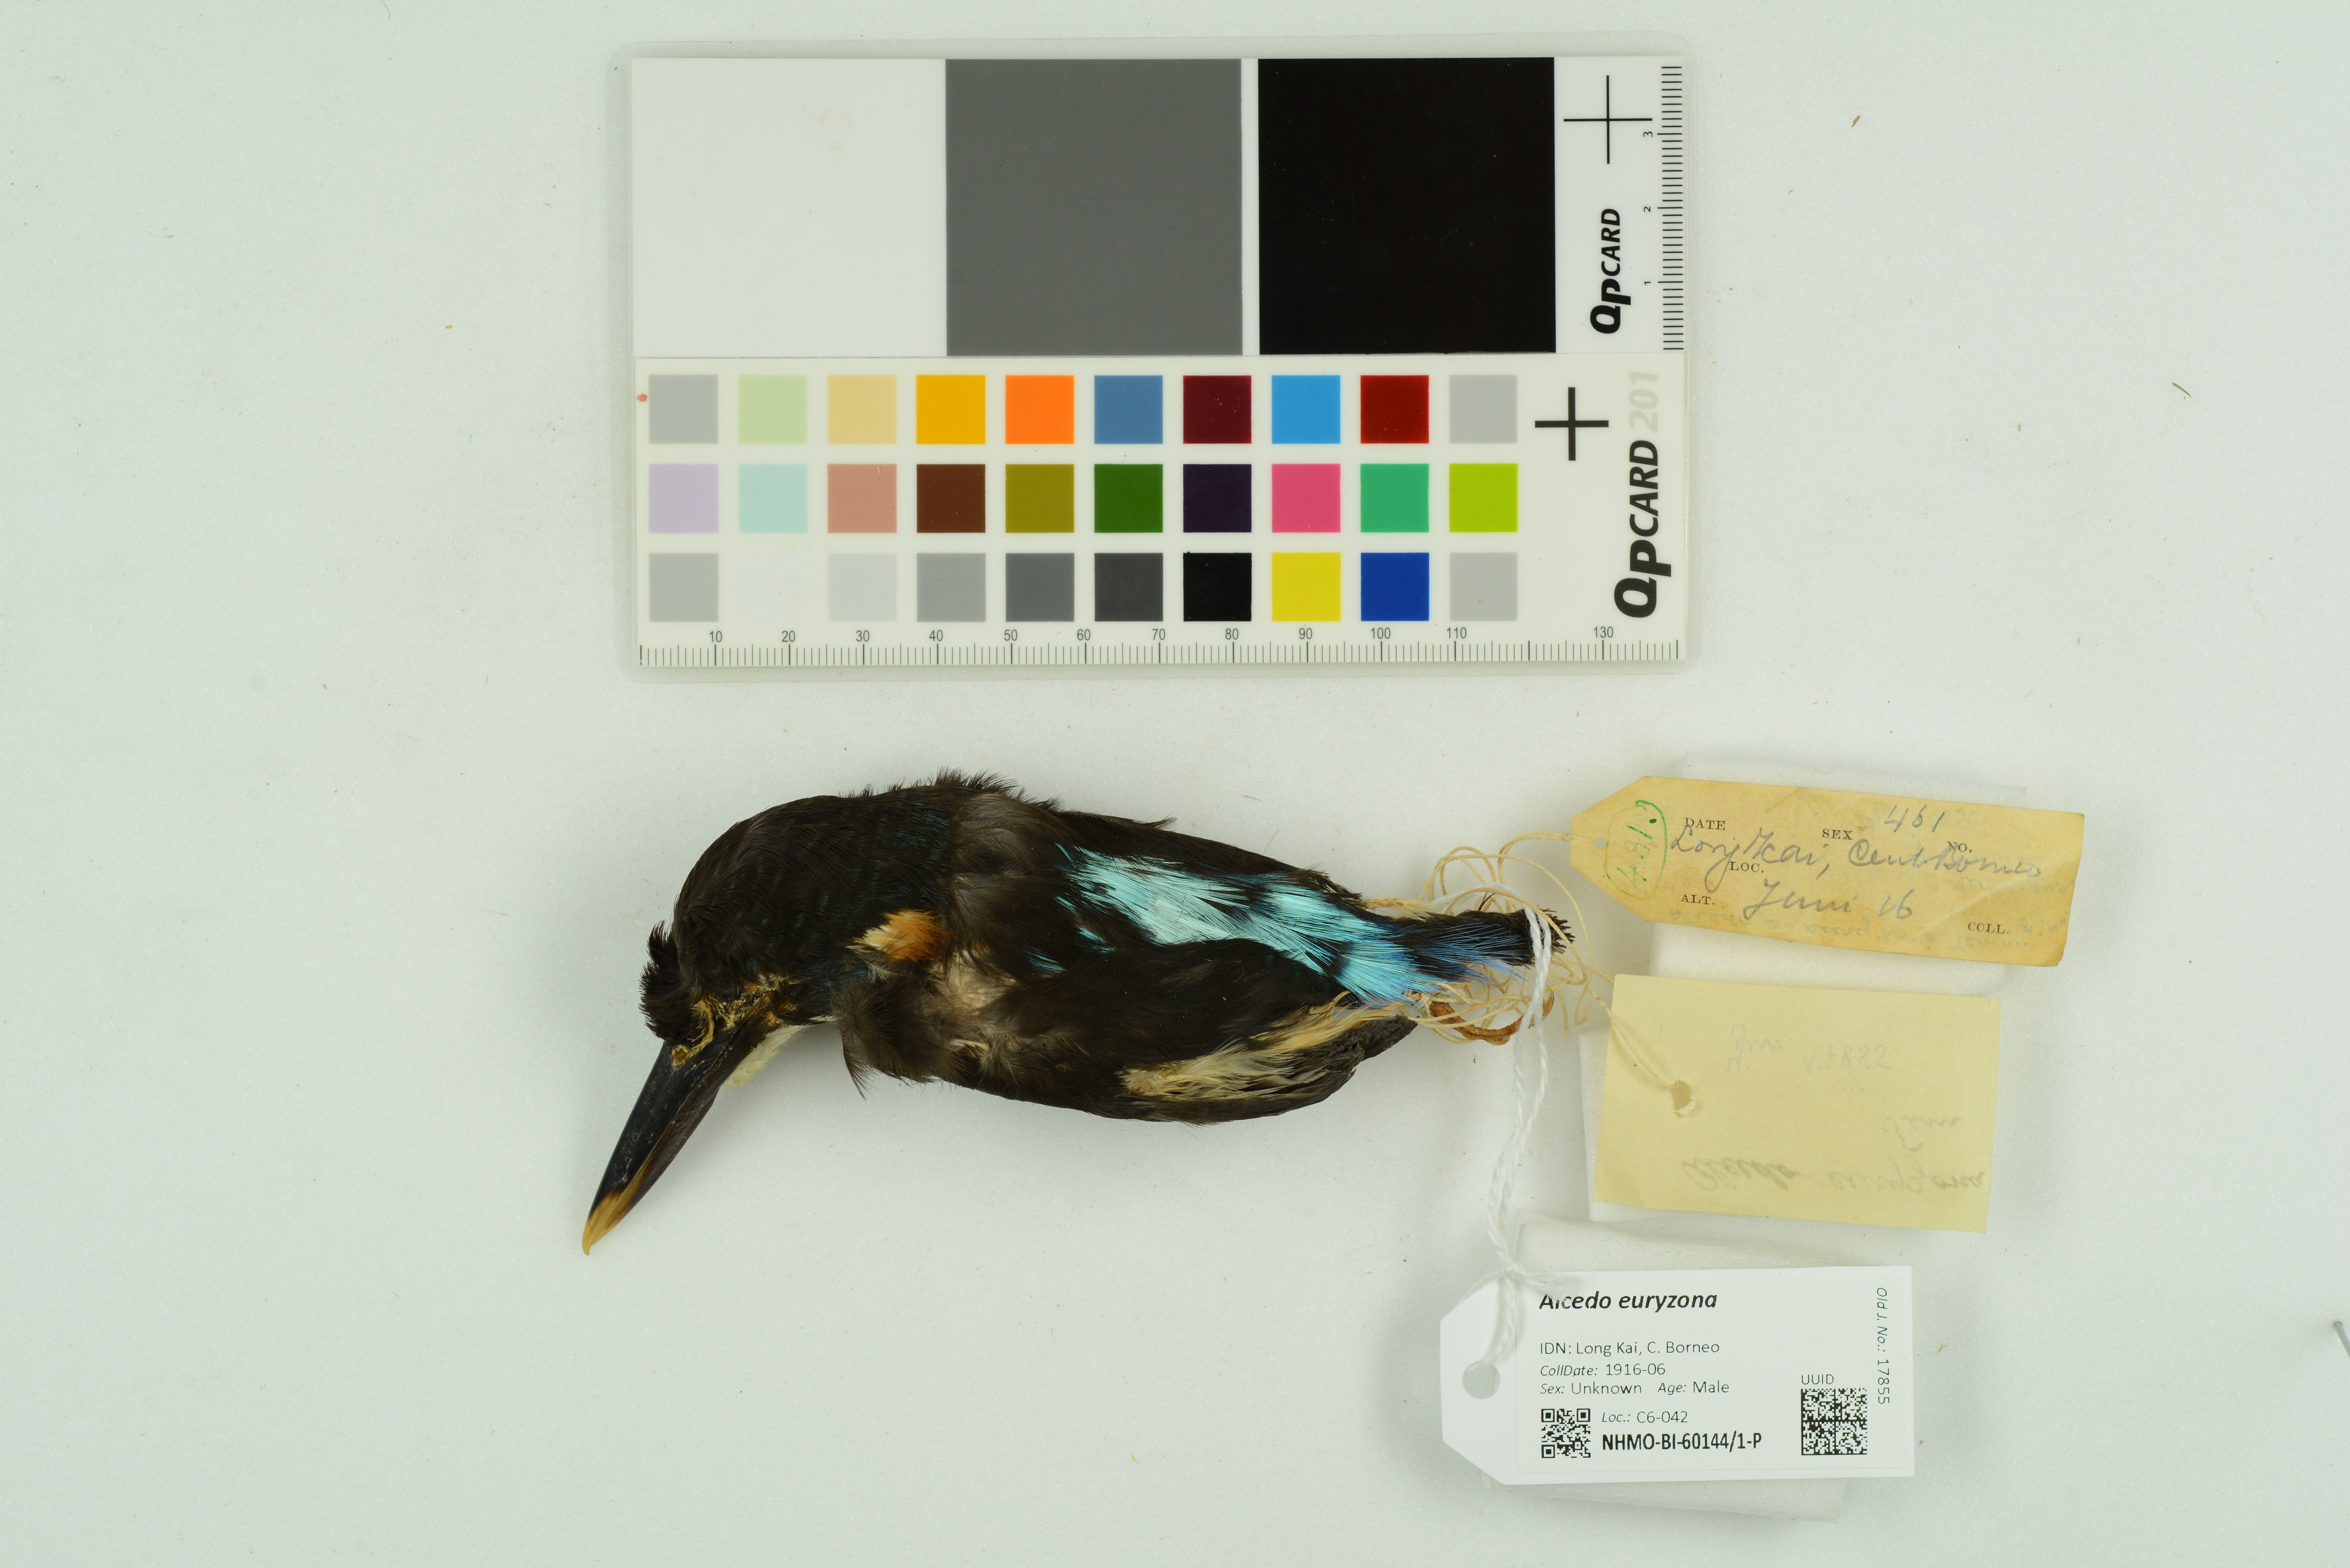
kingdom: Animalia
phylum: Chordata
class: Aves
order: Coraciiformes
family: Alcedinidae
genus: Alcedo
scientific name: Alcedo euryzona
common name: Blue-banded kingfisher
